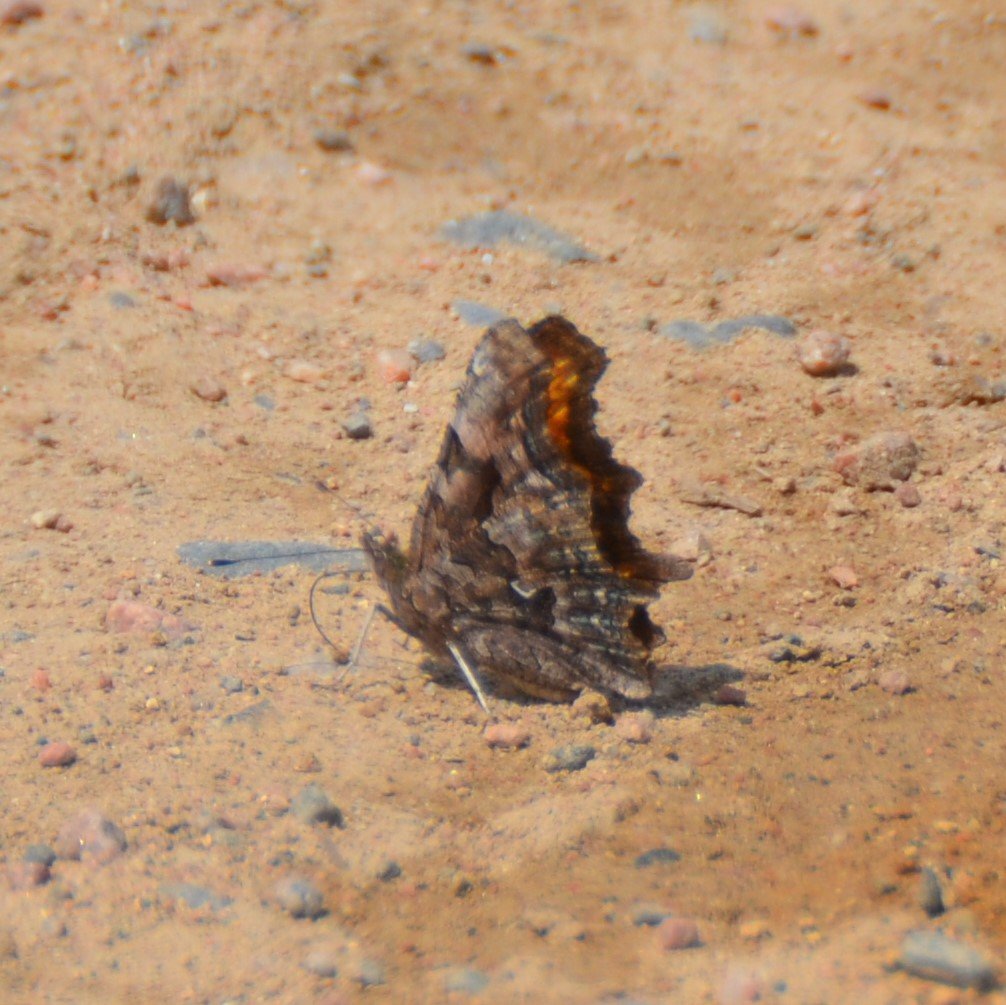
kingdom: Animalia
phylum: Arthropoda
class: Insecta
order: Lepidoptera
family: Nymphalidae
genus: Polygonia
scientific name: Polygonia faunus
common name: Green Comma
